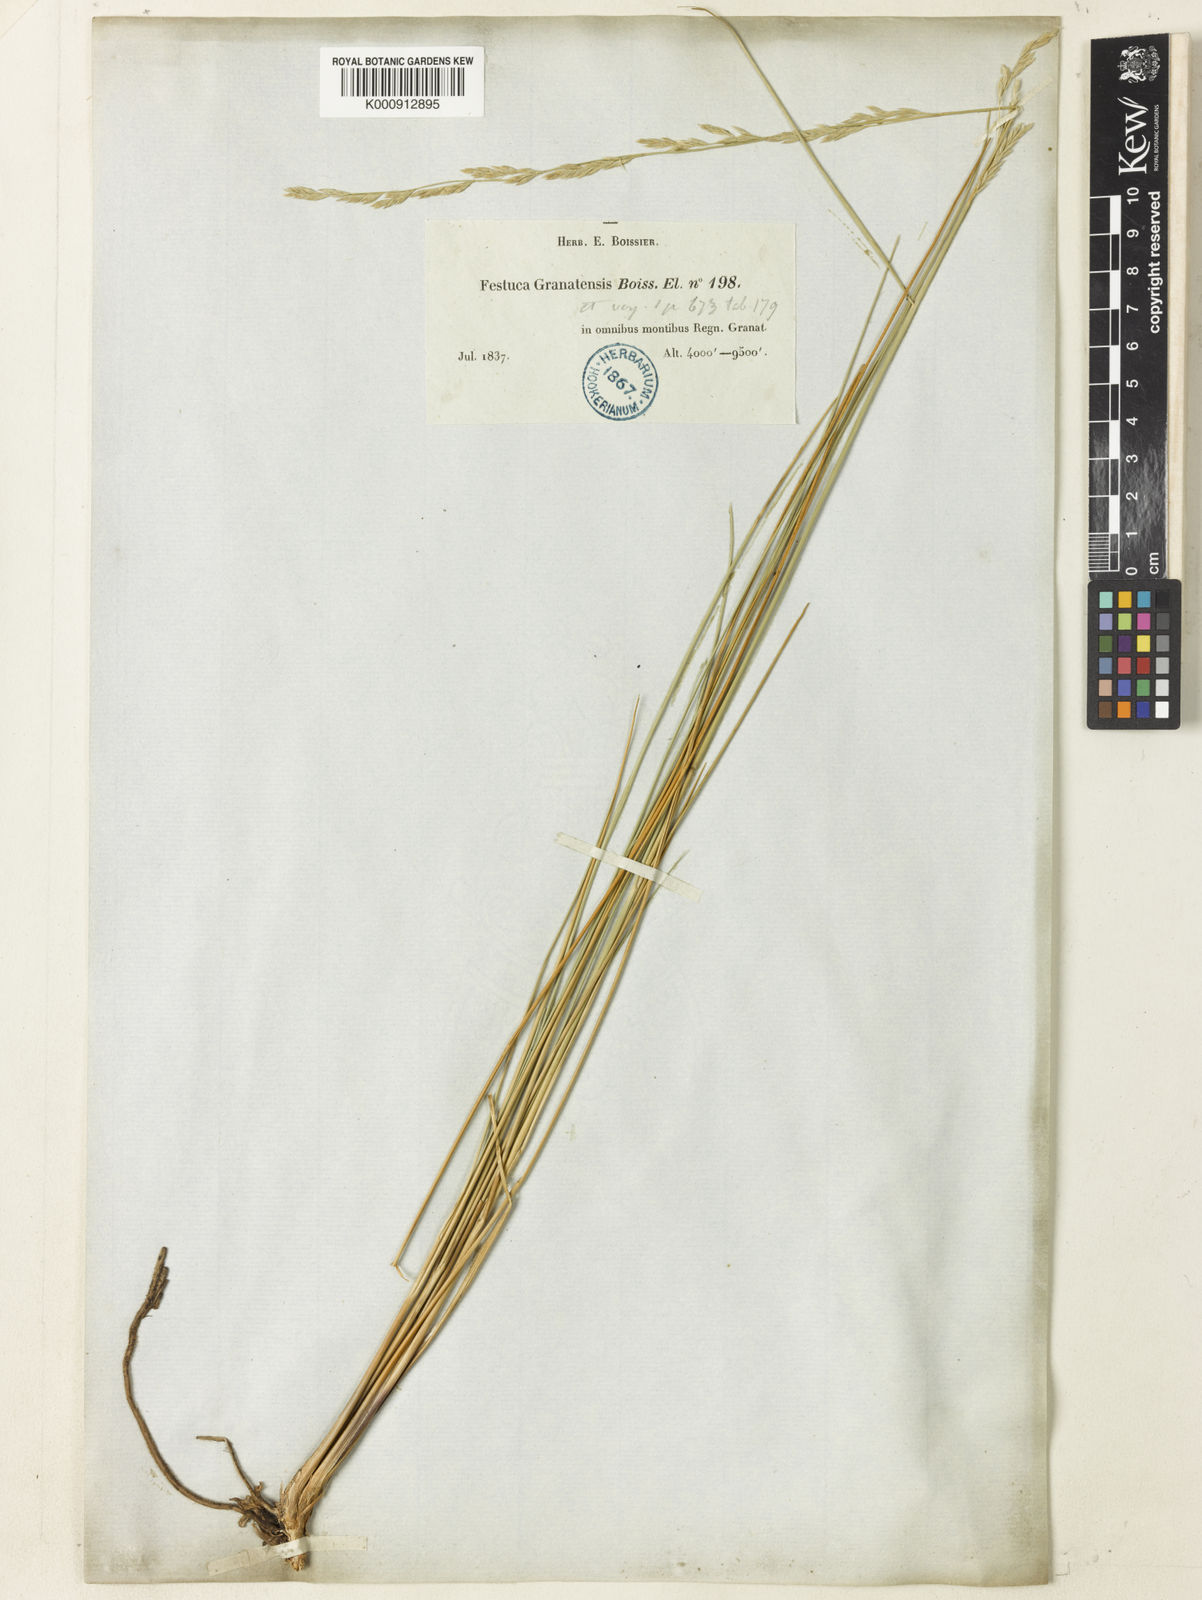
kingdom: Plantae
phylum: Tracheophyta
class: Liliopsida
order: Poales
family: Poaceae
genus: Festuca
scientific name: Festuca scariosa
